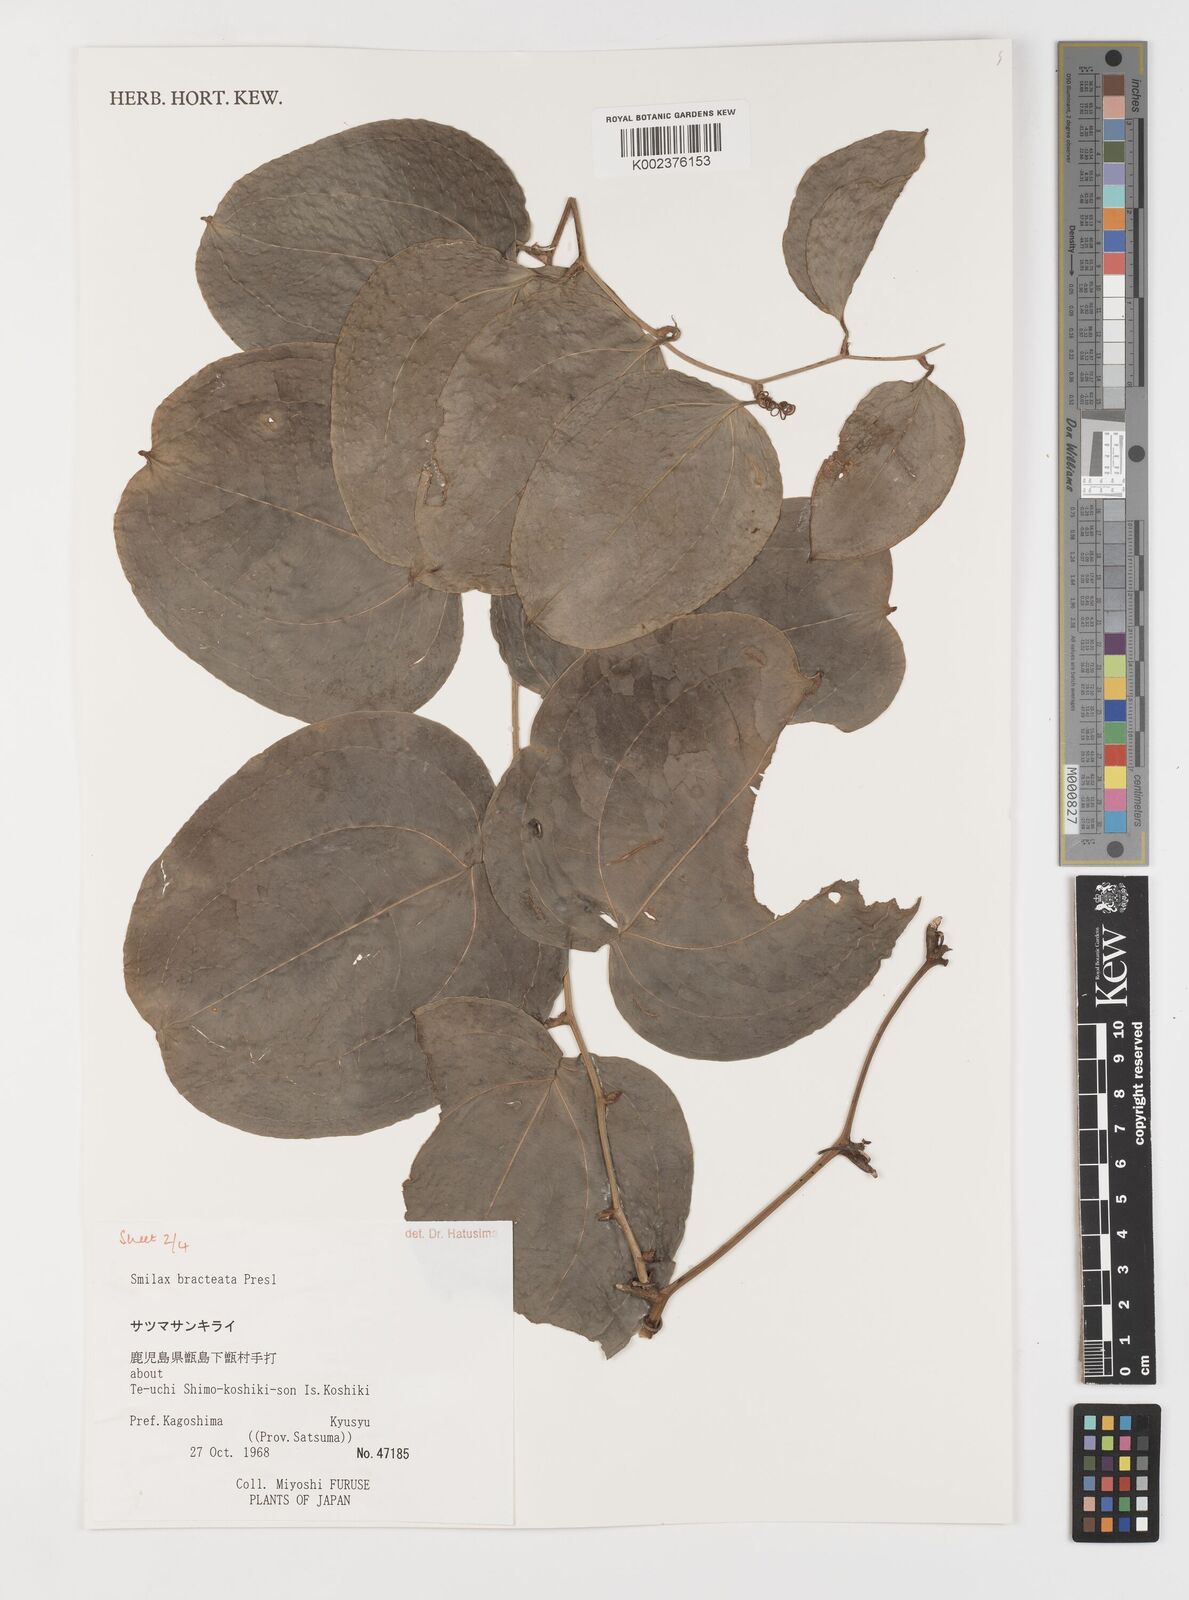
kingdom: Plantae
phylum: Tracheophyta
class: Liliopsida
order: Liliales
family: Smilacaceae
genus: Smilax
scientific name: Smilax bracteata
